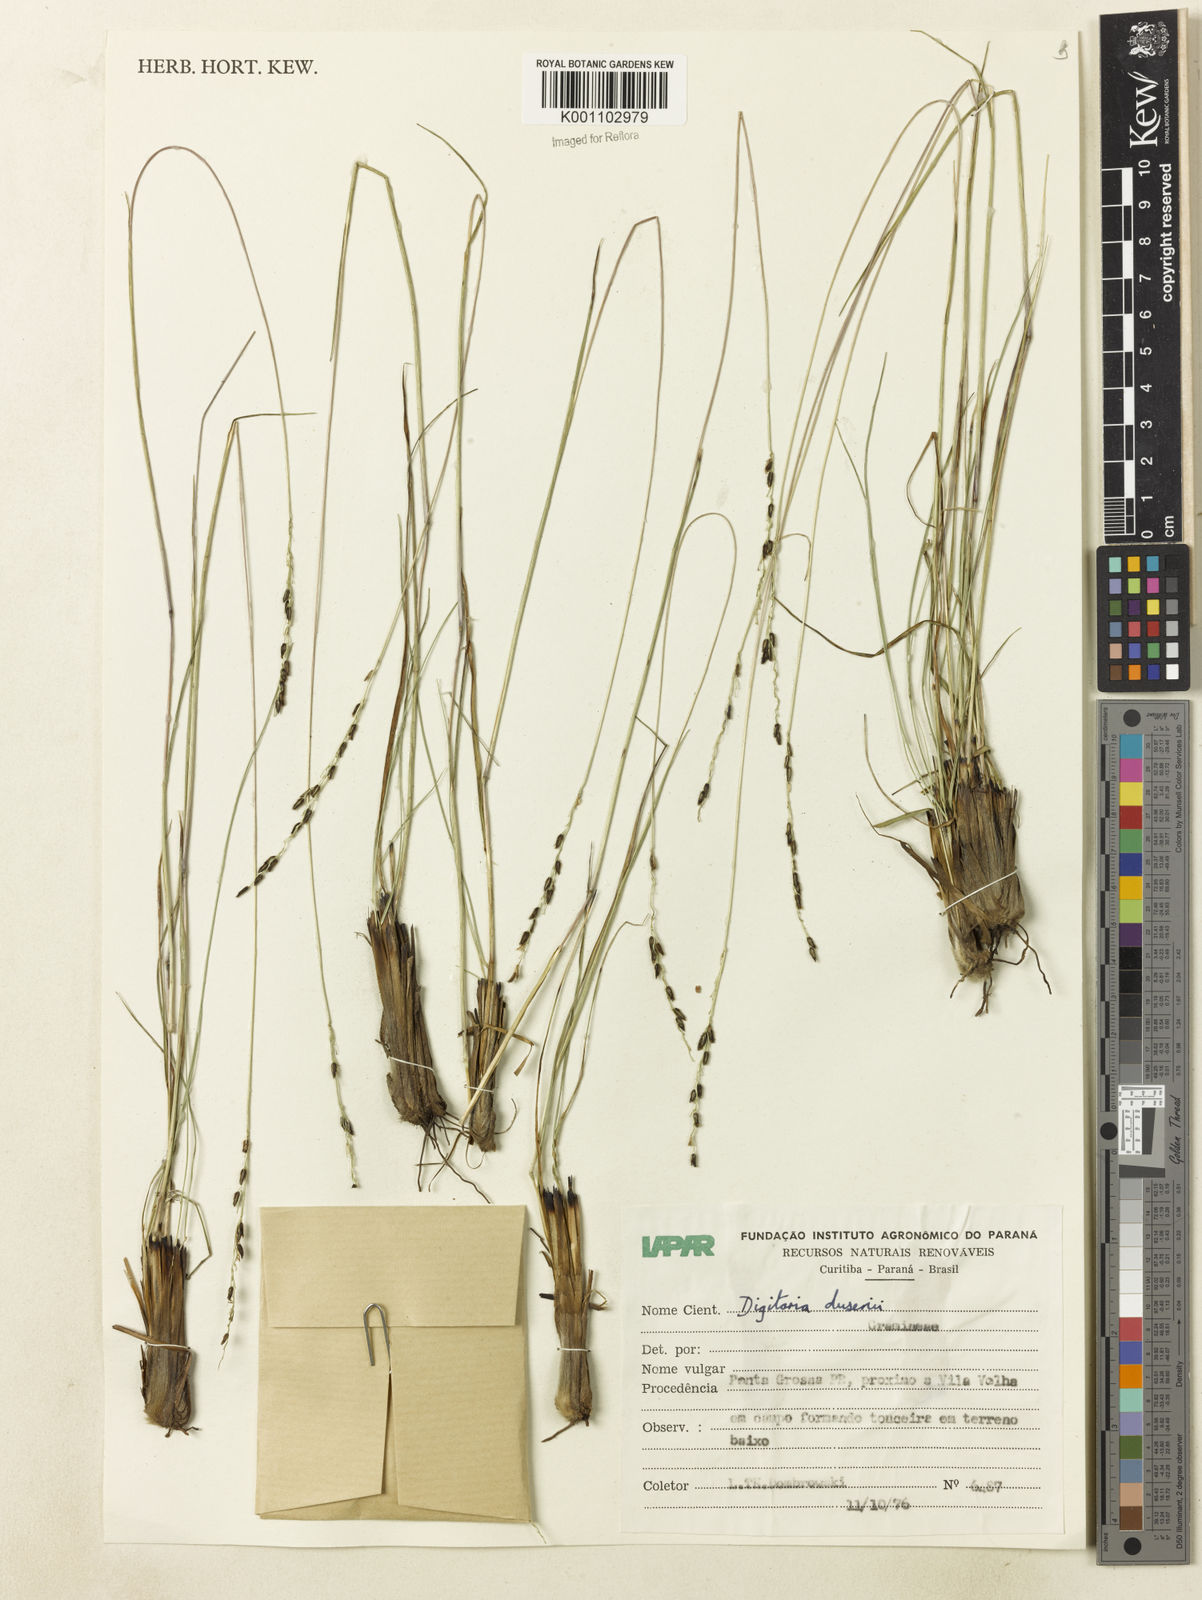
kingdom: Plantae
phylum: Tracheophyta
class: Liliopsida
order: Poales
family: Poaceae
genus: Digitaria
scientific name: Digitaria purpurea
